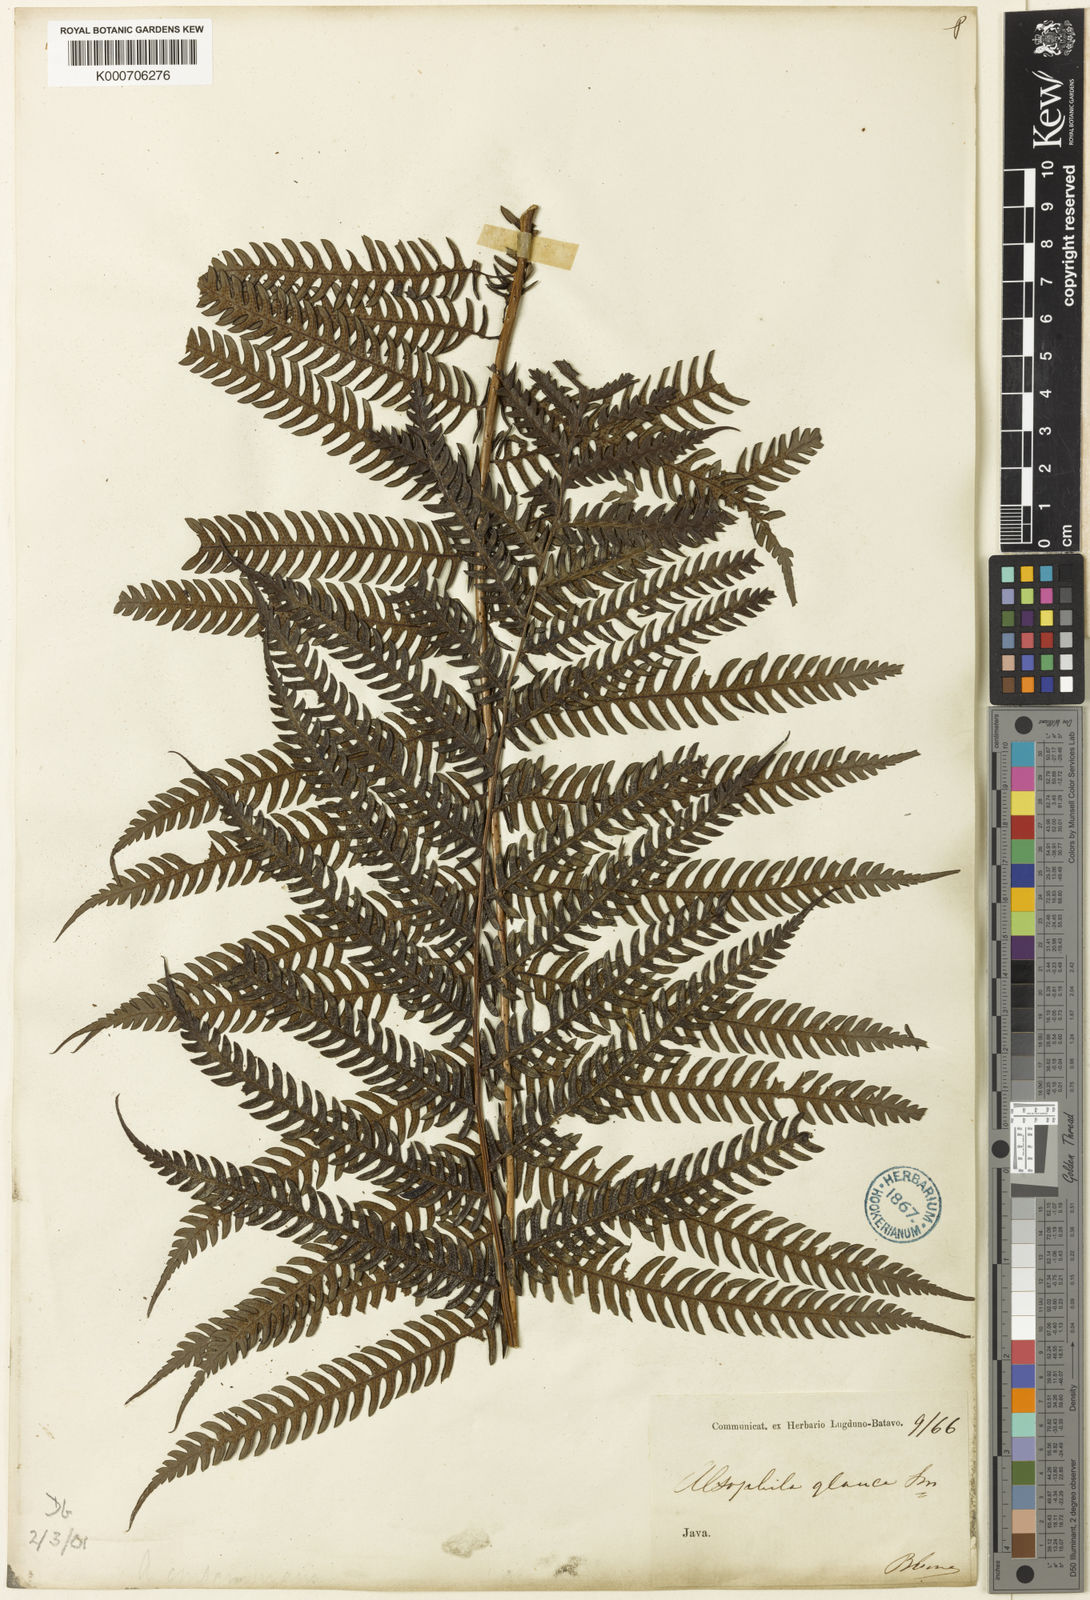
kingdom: Plantae
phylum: Tracheophyta
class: Polypodiopsida
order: Cyatheales
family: Cyatheaceae
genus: Sphaeropteris
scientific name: Sphaeropteris glauca
